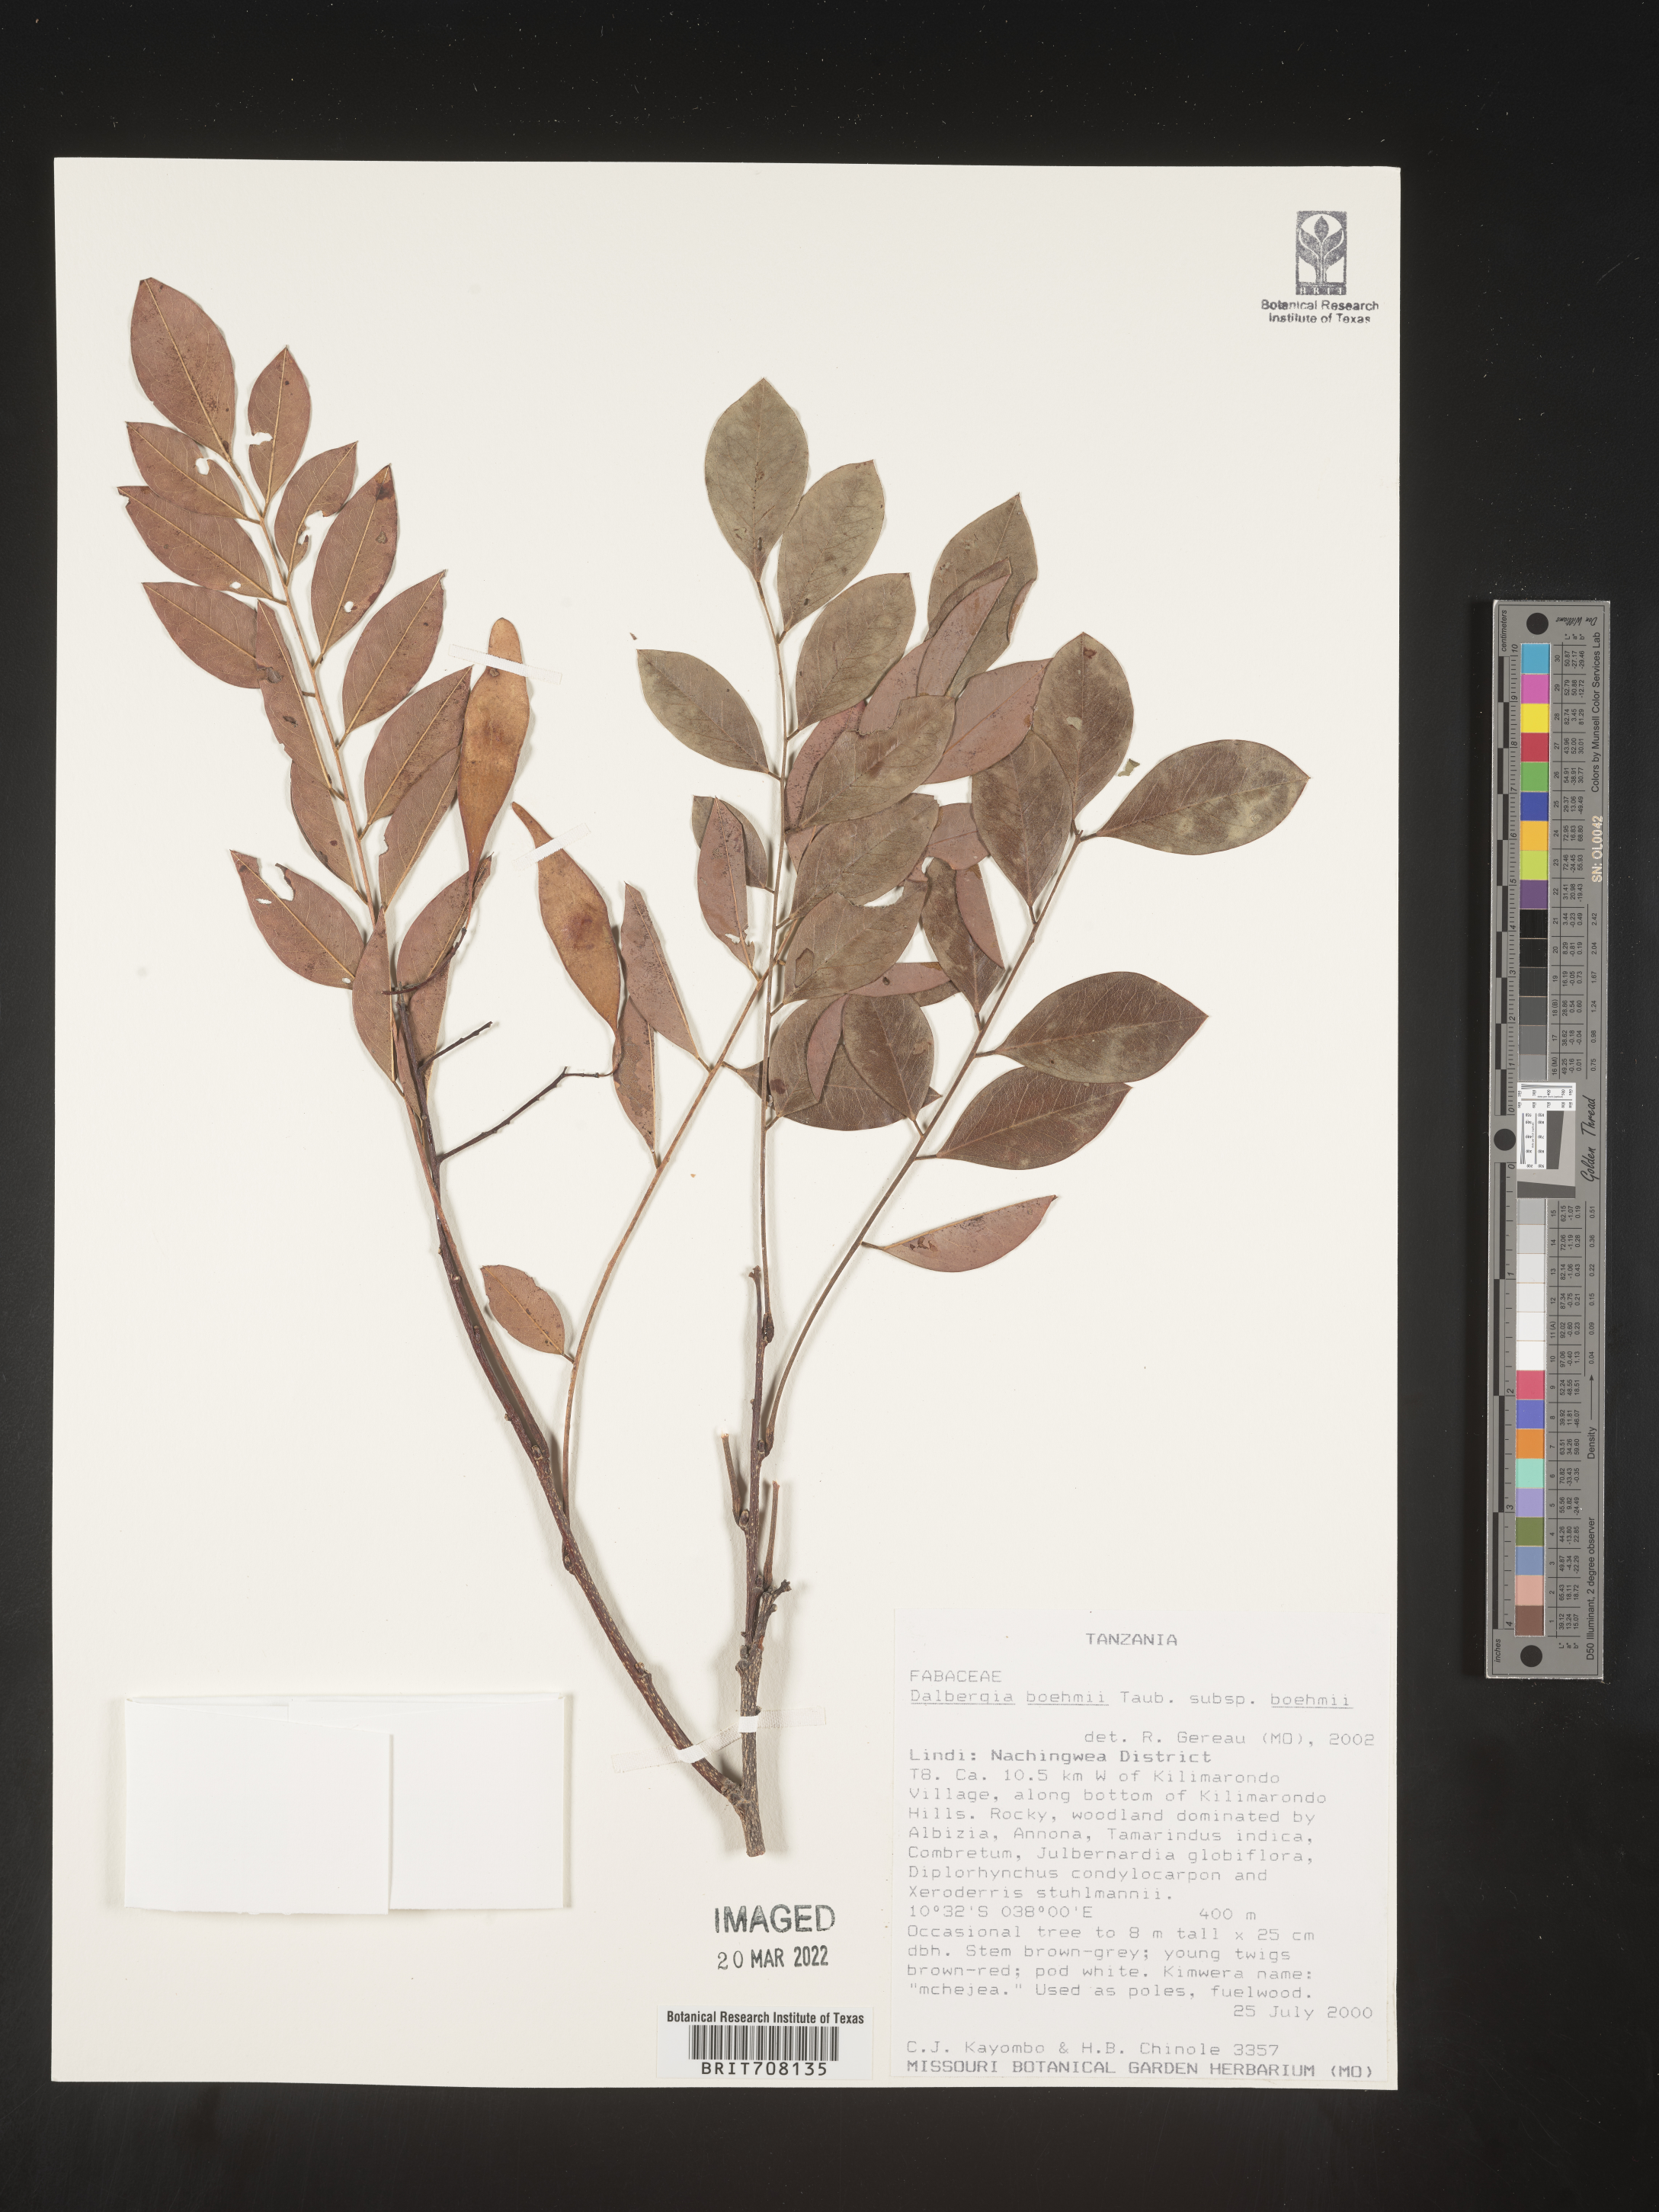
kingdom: Plantae
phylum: Tracheophyta
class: Magnoliopsida
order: Fabales
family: Fabaceae
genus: Dalbergia
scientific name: Dalbergia
